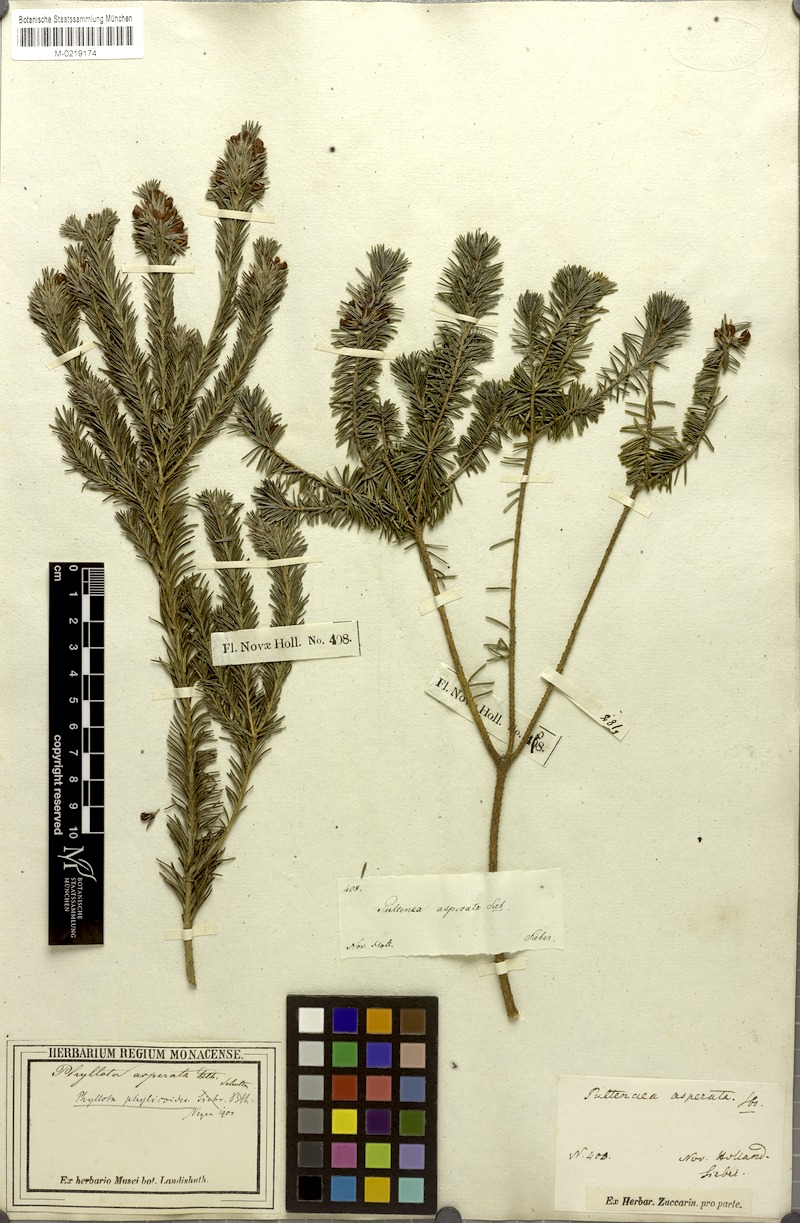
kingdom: Plantae
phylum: Tracheophyta
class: Magnoliopsida
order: Fabales
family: Fabaceae
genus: Pultenaea
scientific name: Pultenaea asperata
